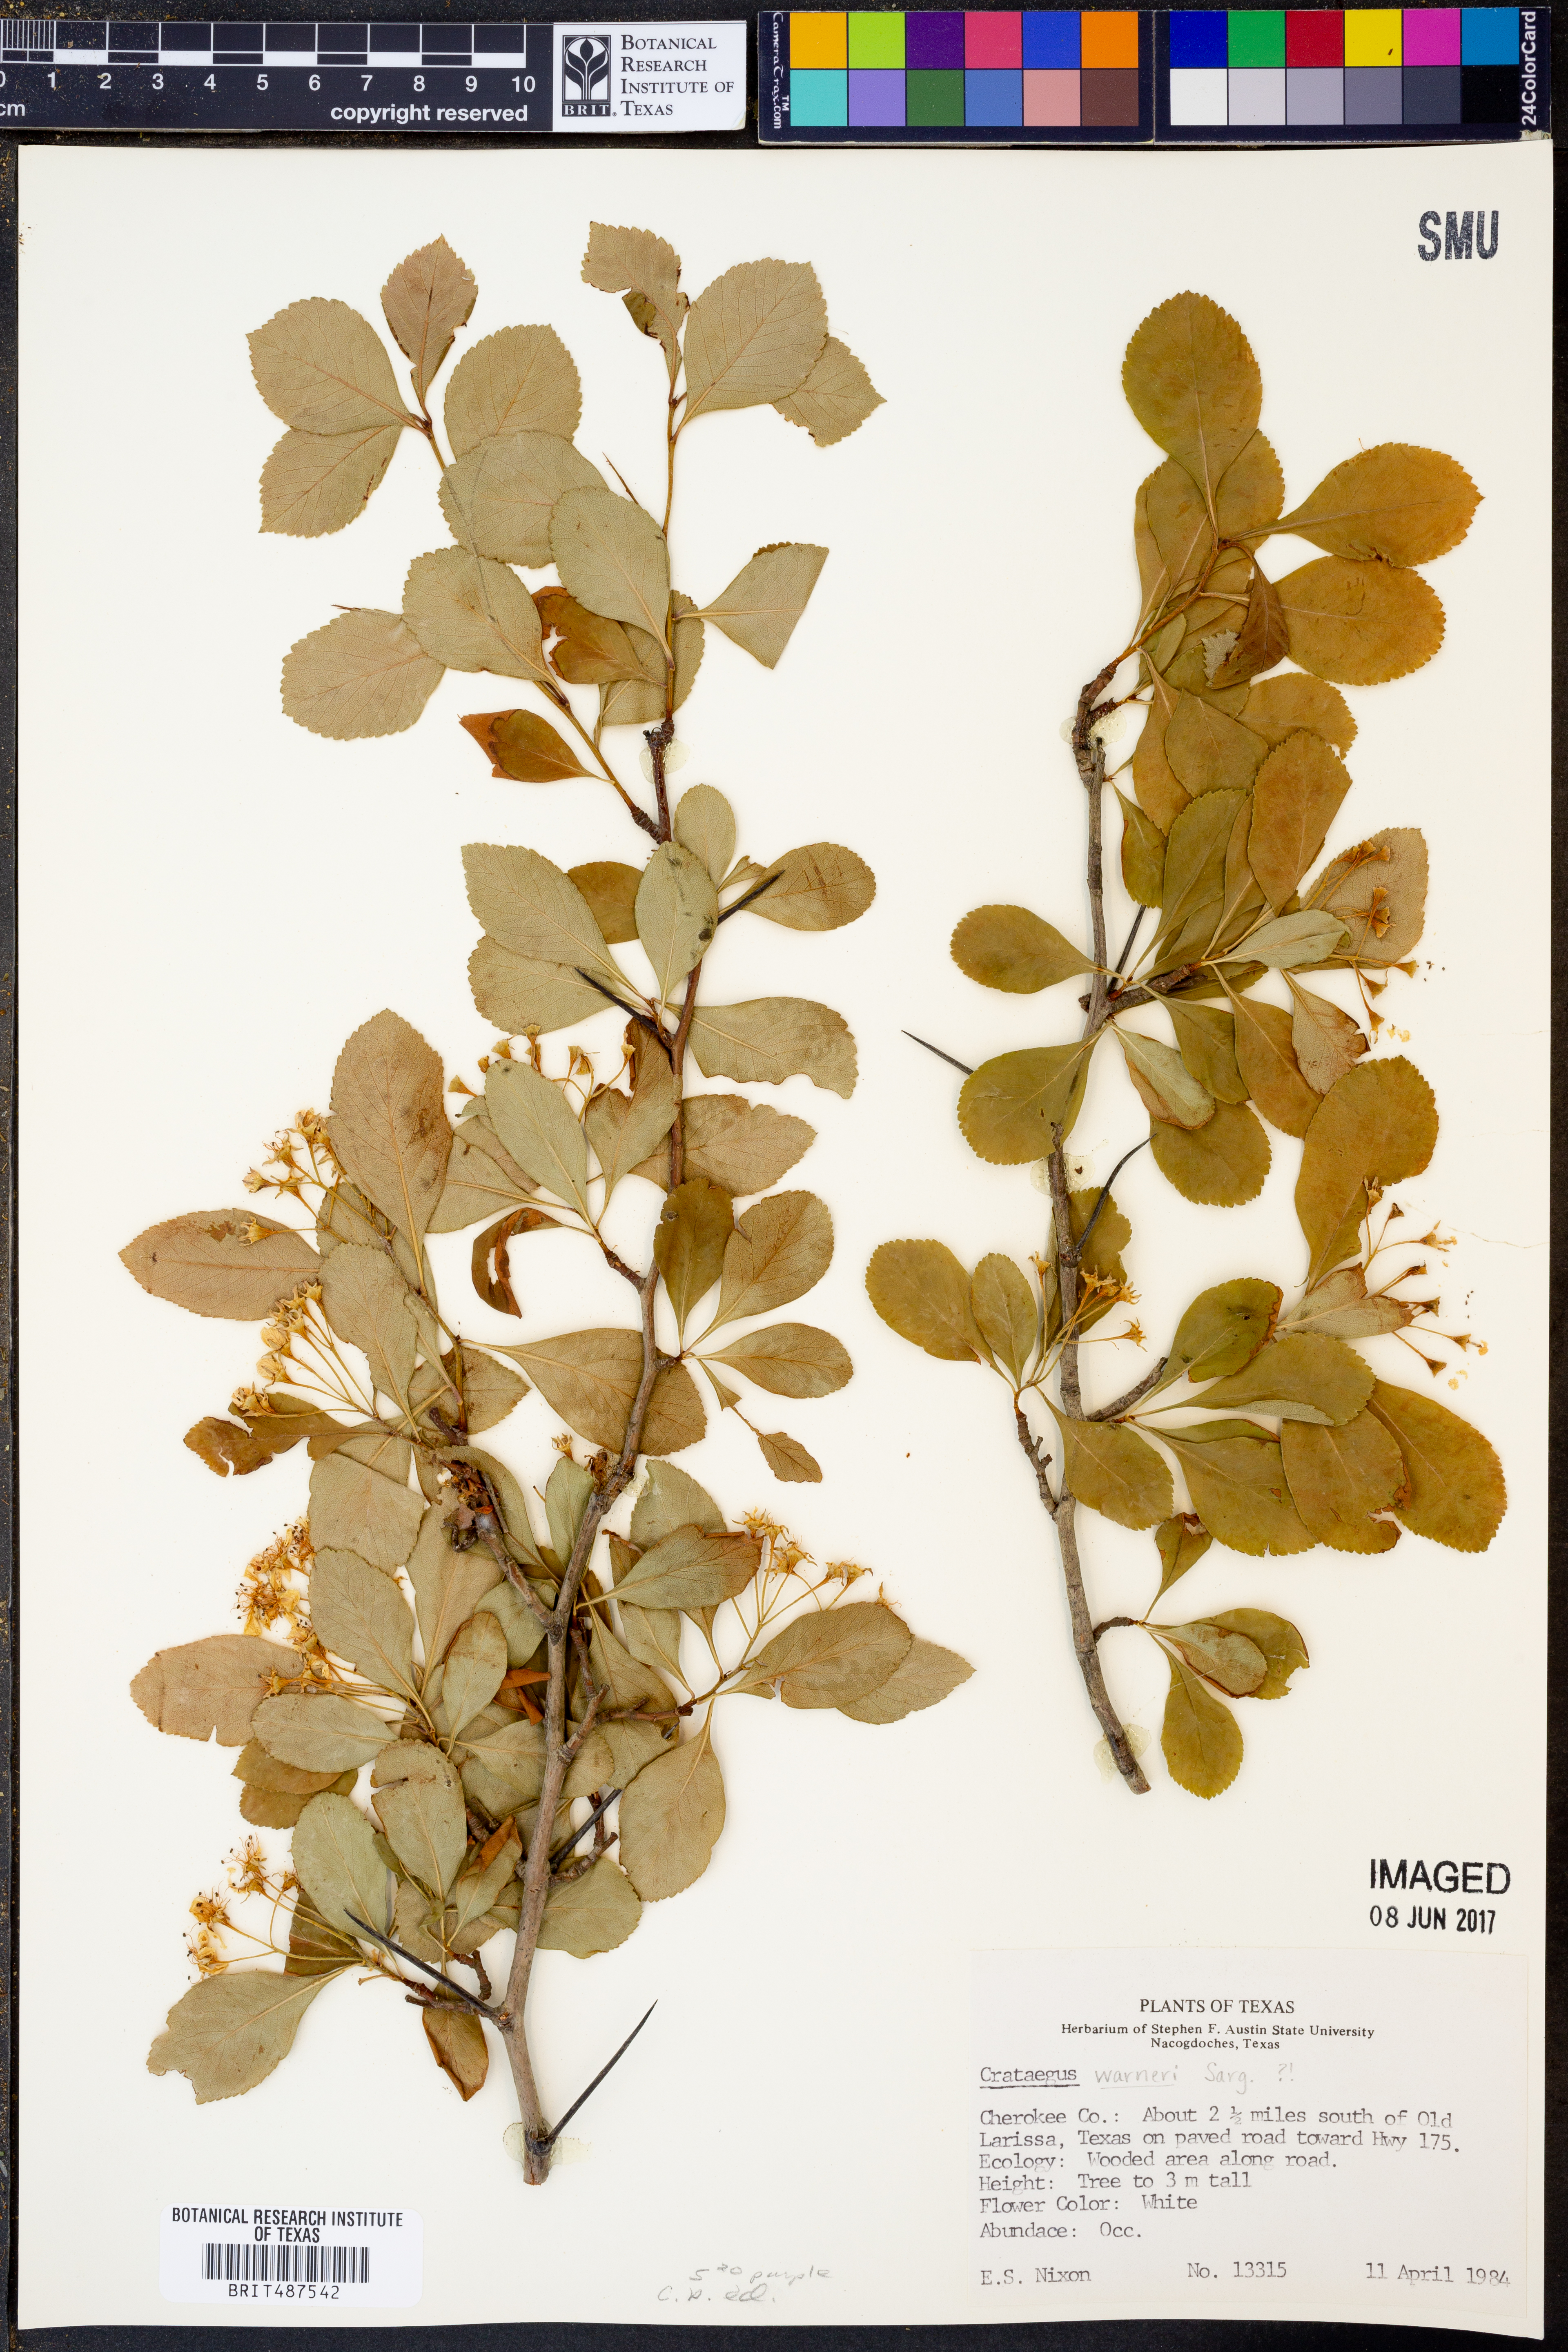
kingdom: Plantae
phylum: Tracheophyta
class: Magnoliopsida
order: Rosales
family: Rosaceae
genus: Crataegus
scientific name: Crataegus warneri
